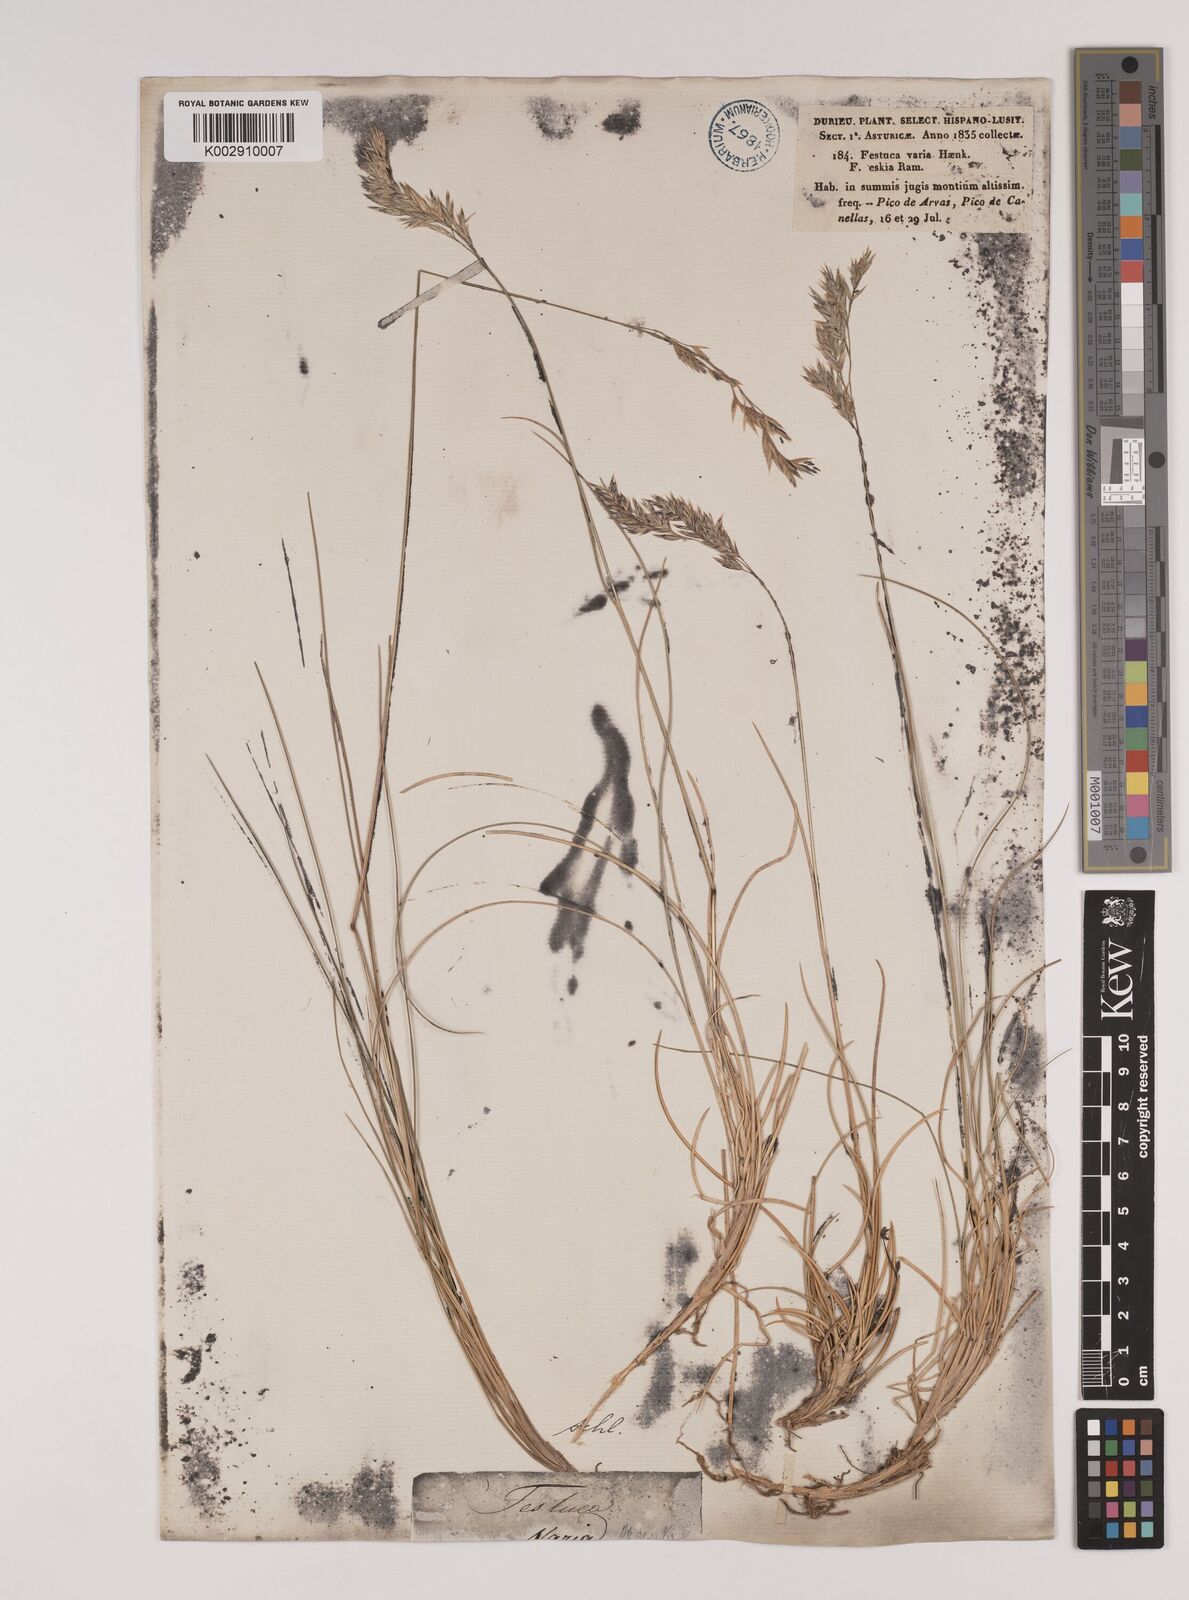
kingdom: Plantae
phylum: Tracheophyta
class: Liliopsida
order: Poales
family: Poaceae
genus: Festuca
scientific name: Festuca eskia
